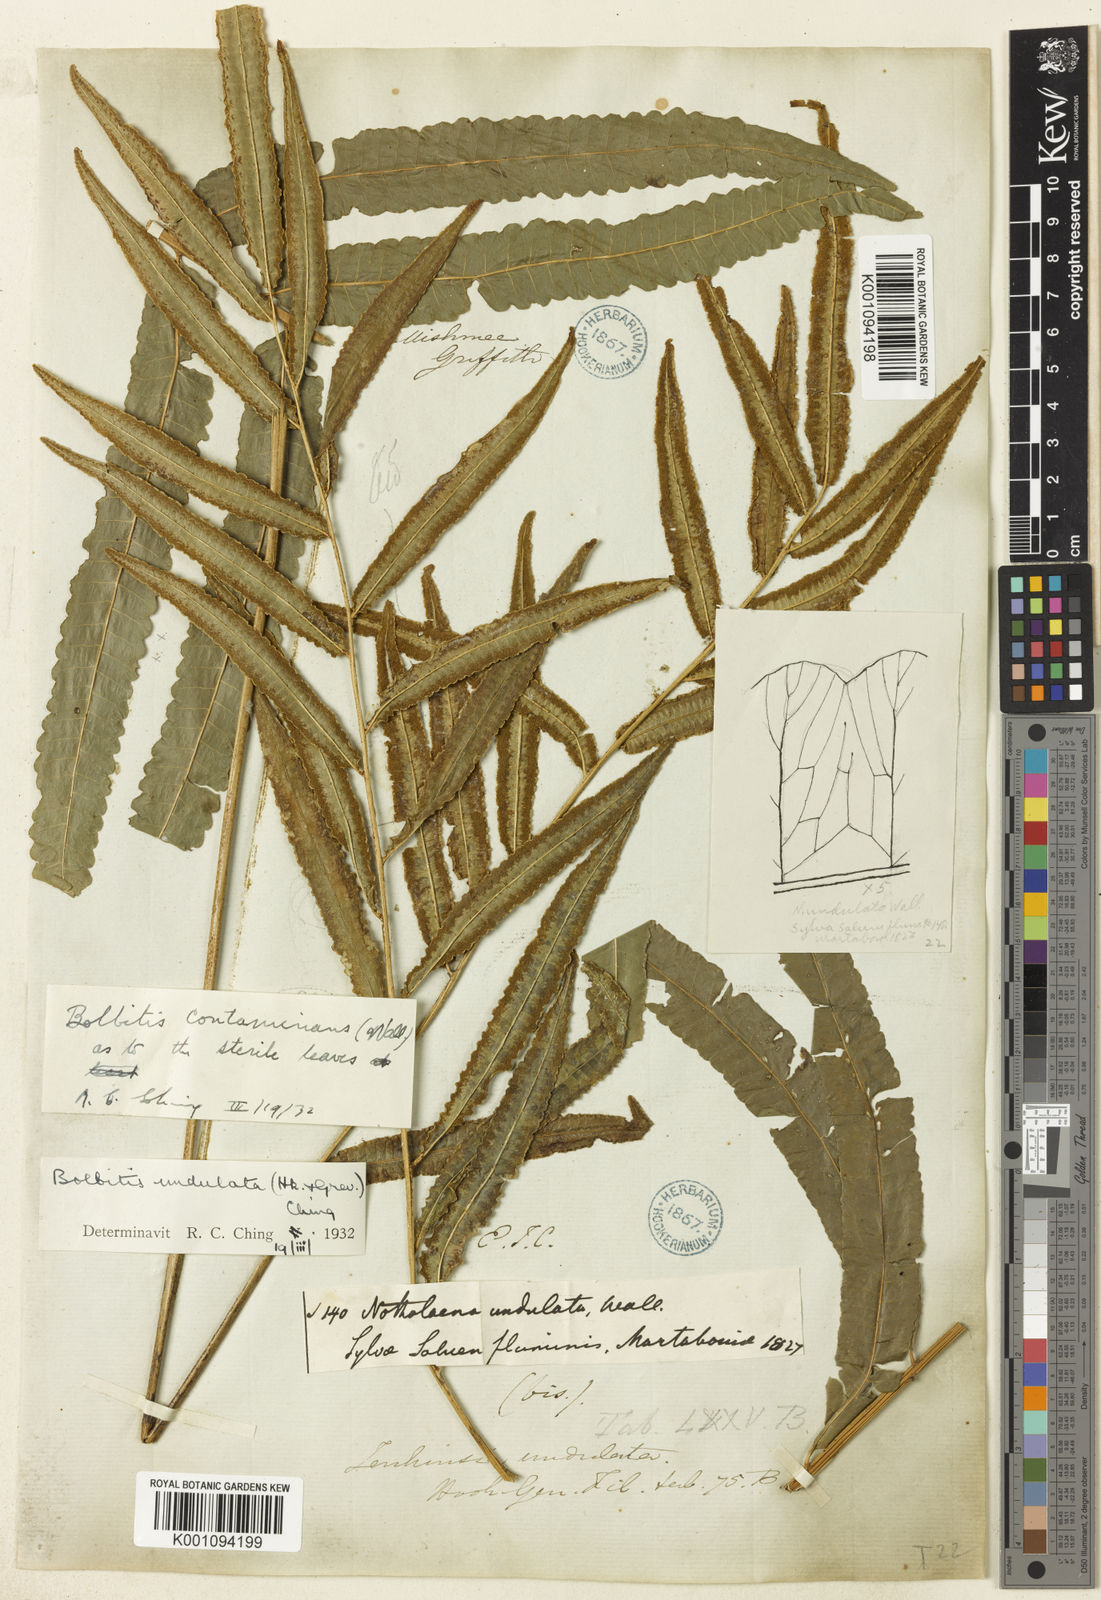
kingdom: Plantae
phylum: Tracheophyta
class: Polypodiopsida
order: Polypodiales
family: Dryopteridaceae
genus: Bolbitis
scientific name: Bolbitis virens
